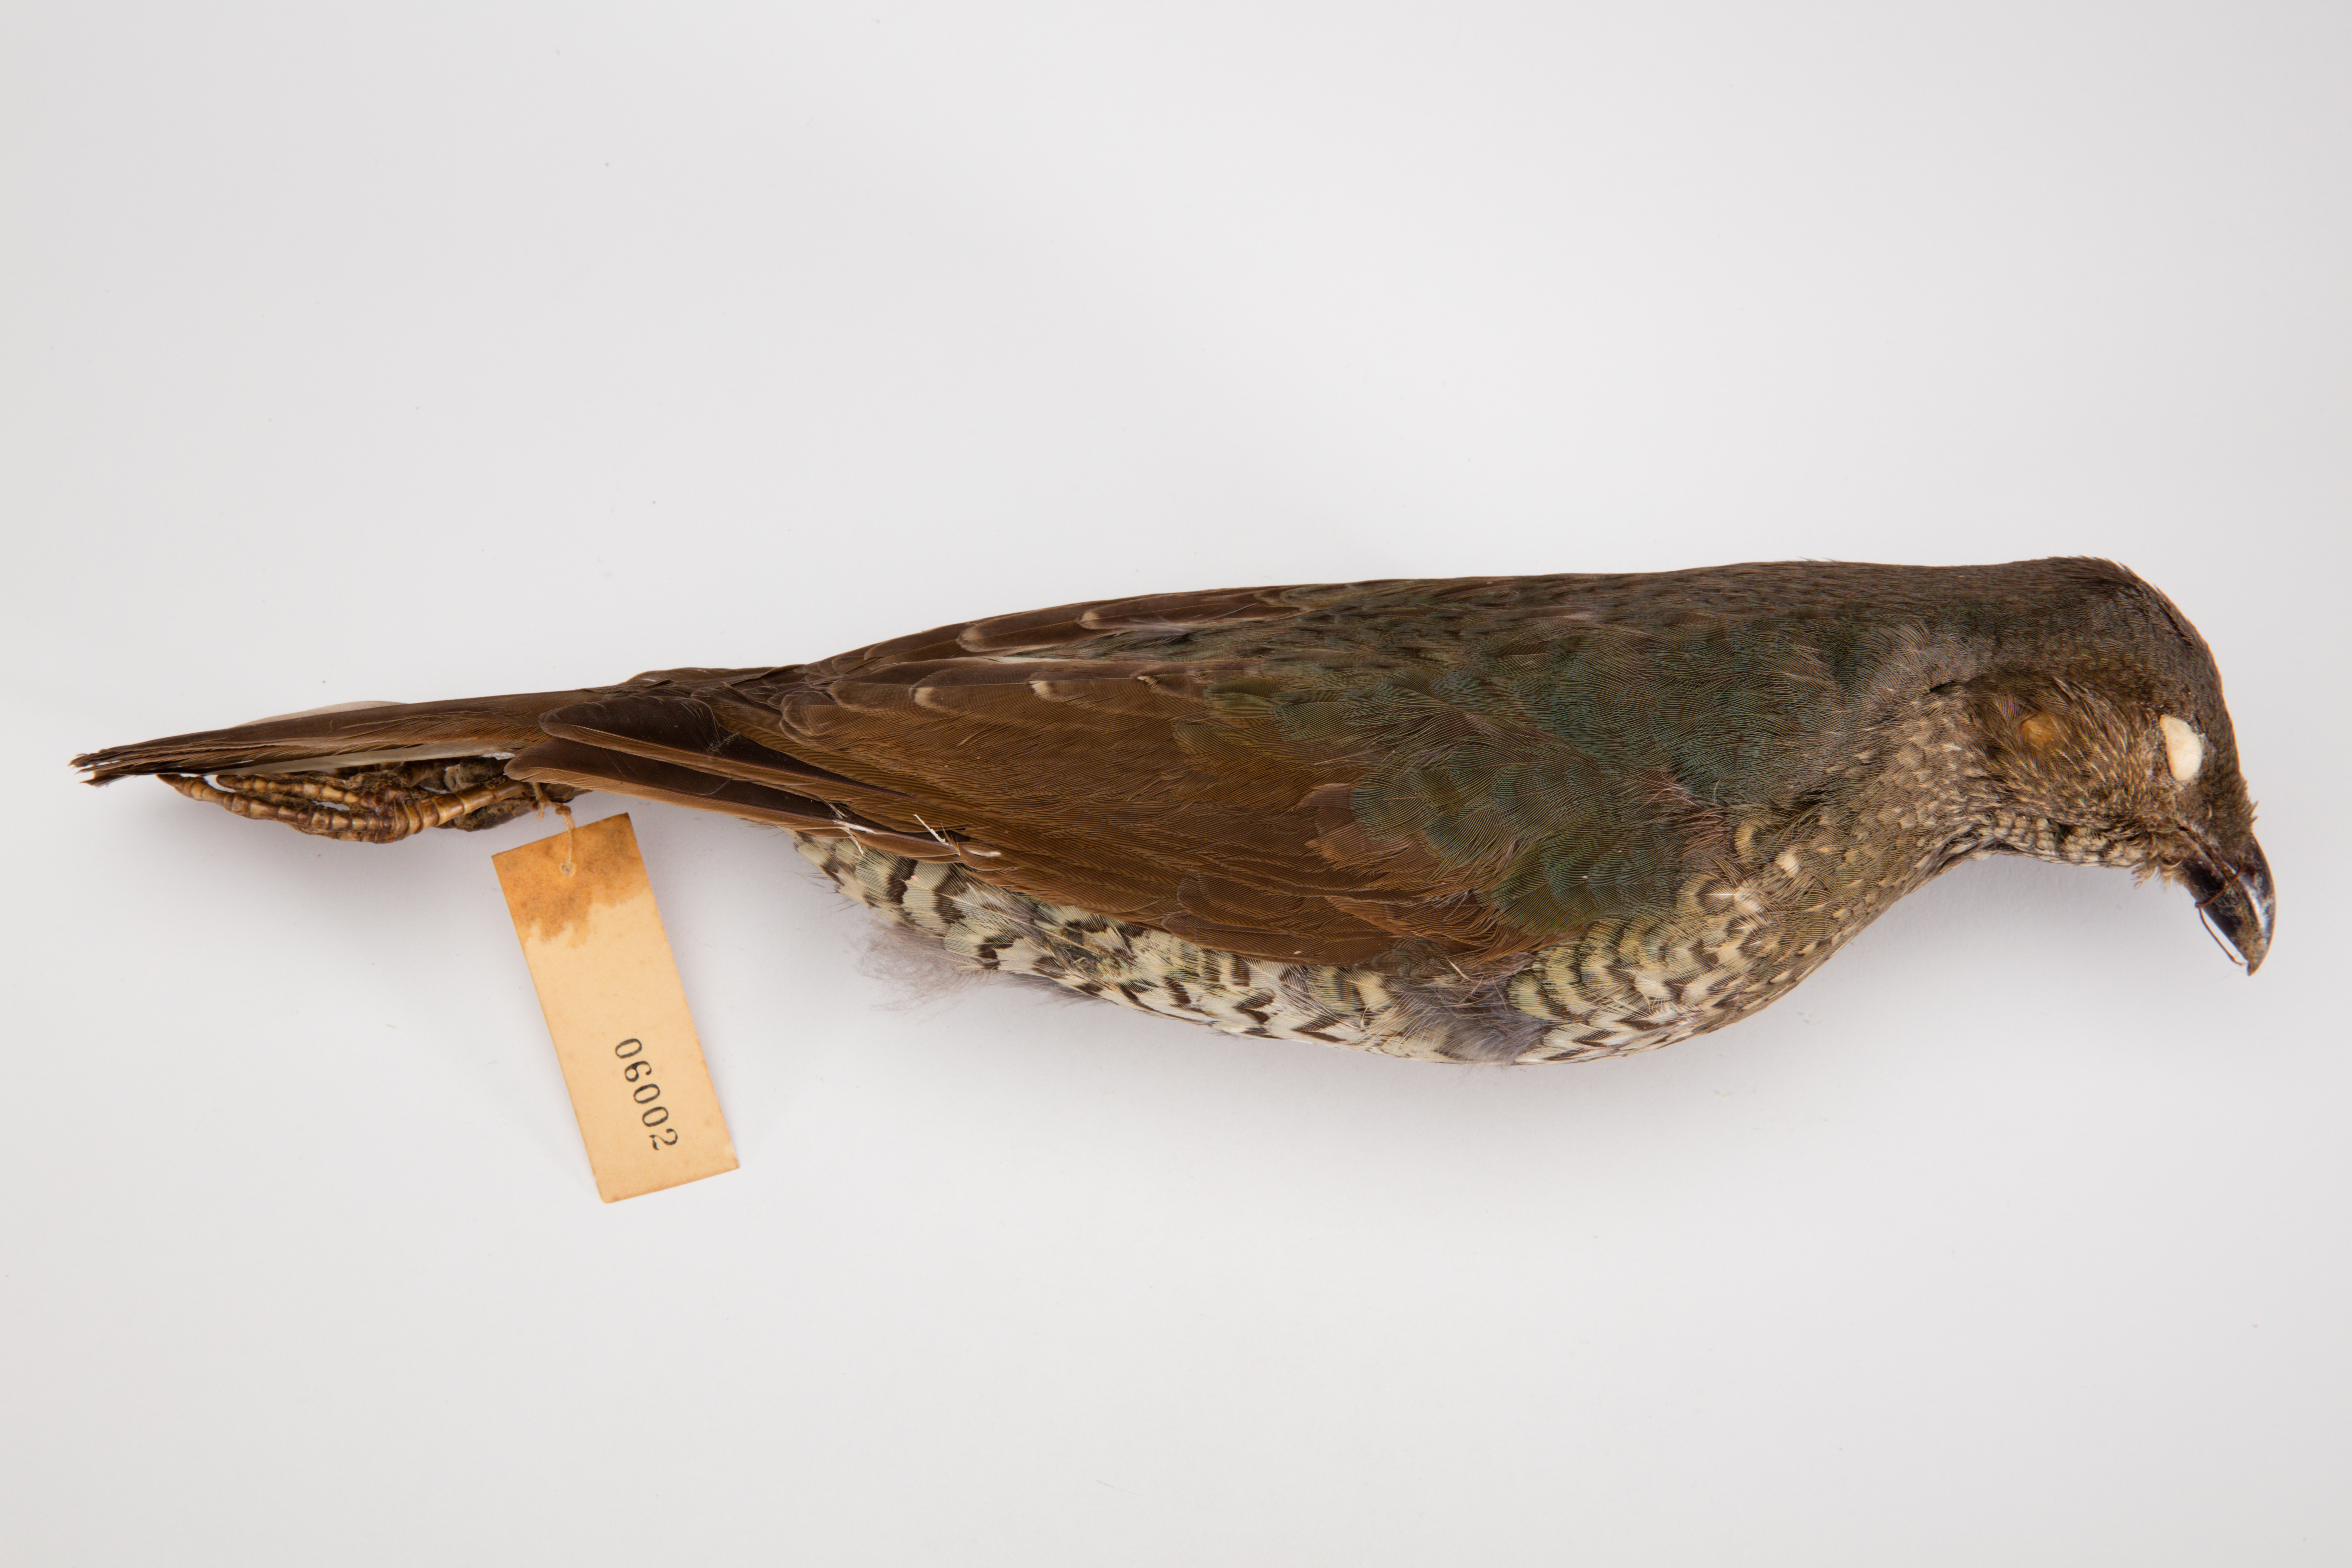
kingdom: Animalia
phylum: Chordata
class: Aves
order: Passeriformes
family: Ptilonorhynchidae
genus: Ptilonorhynchus
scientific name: Ptilonorhynchus violaceus
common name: Satin bowerbird
